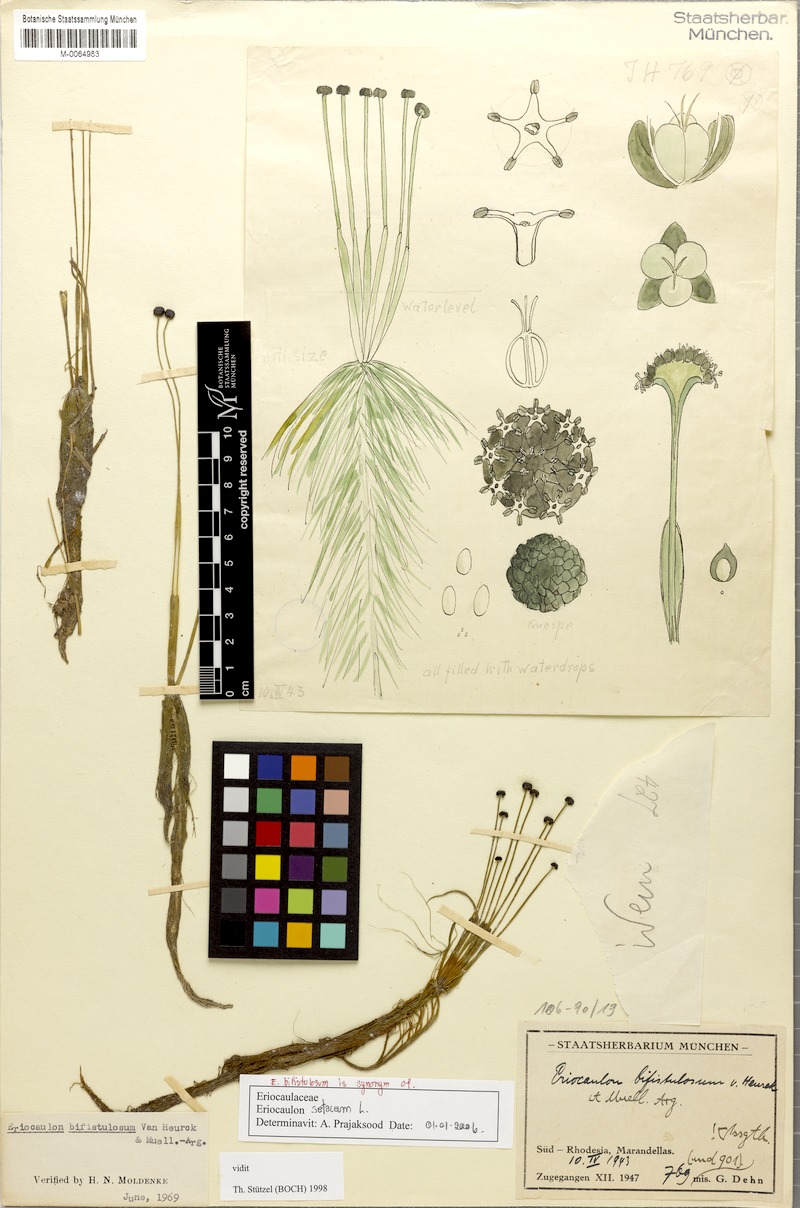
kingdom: Plantae
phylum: Tracheophyta
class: Liliopsida
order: Poales
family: Eriocaulaceae
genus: Eriocaulon
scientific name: Eriocaulon setaceum
